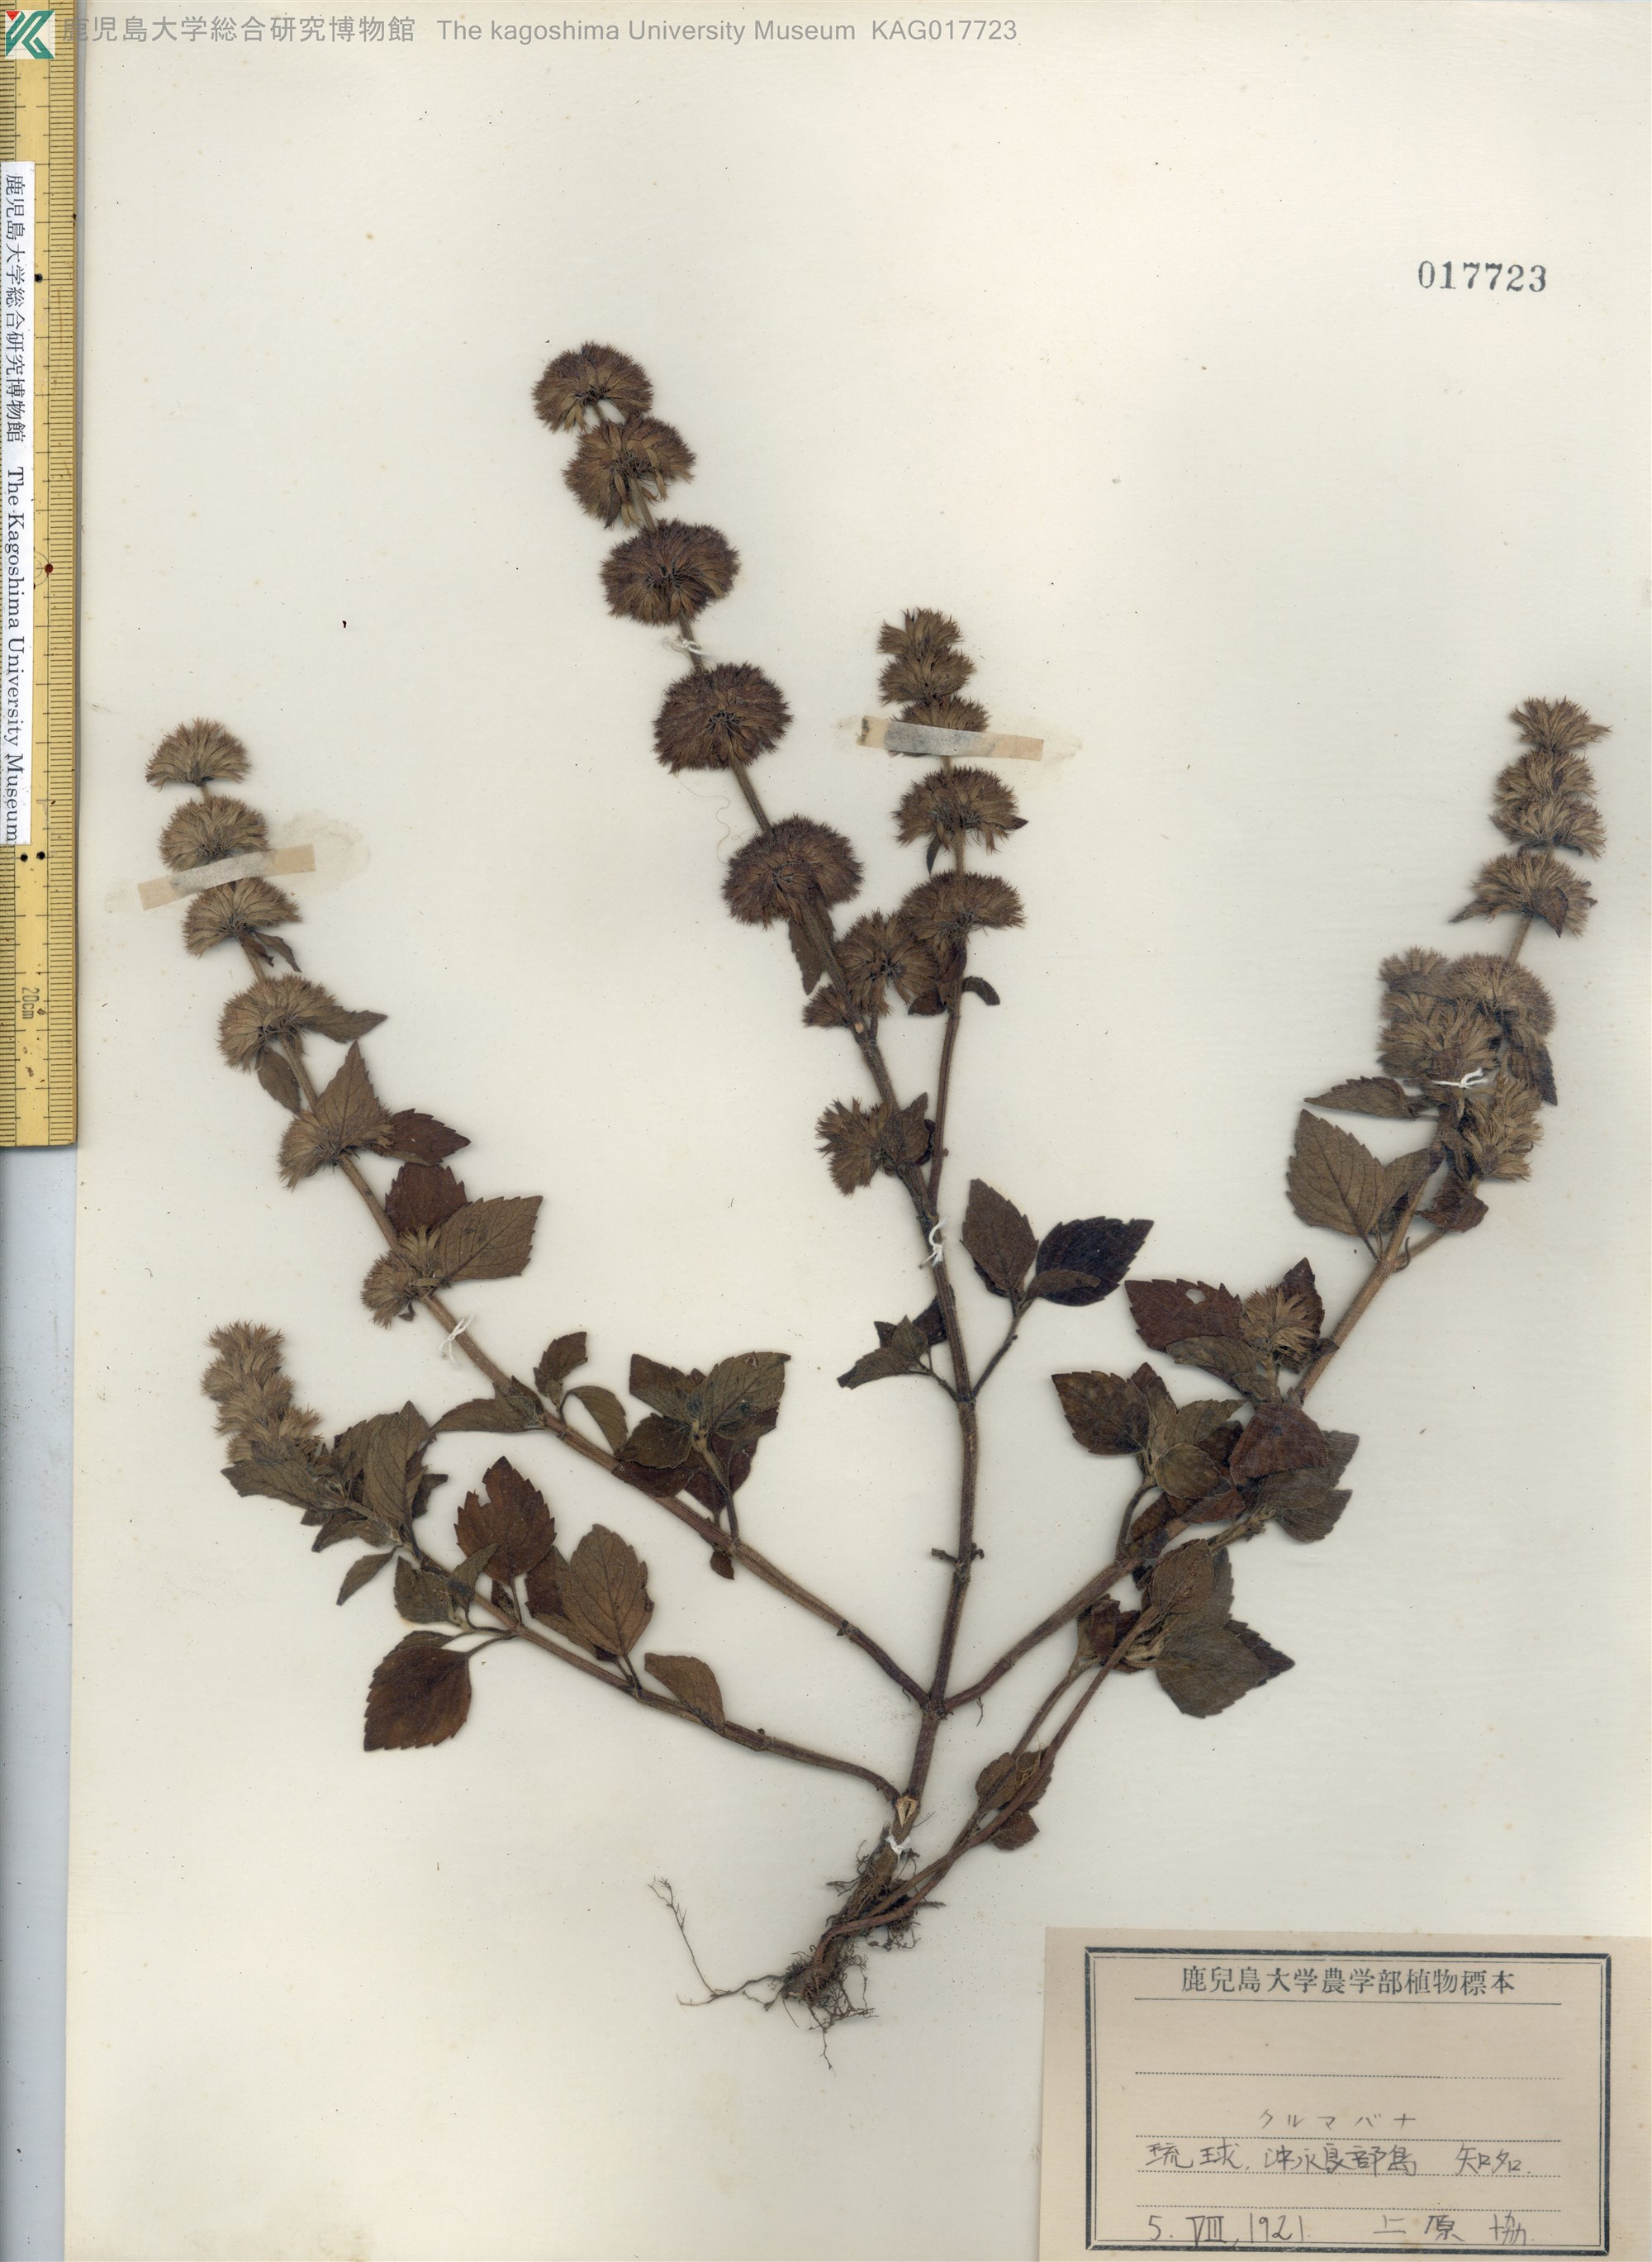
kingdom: Plantae
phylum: Tracheophyta
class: Magnoliopsida
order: Lamiales
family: Lamiaceae
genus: Clinopodium
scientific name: Clinopodium chinense
